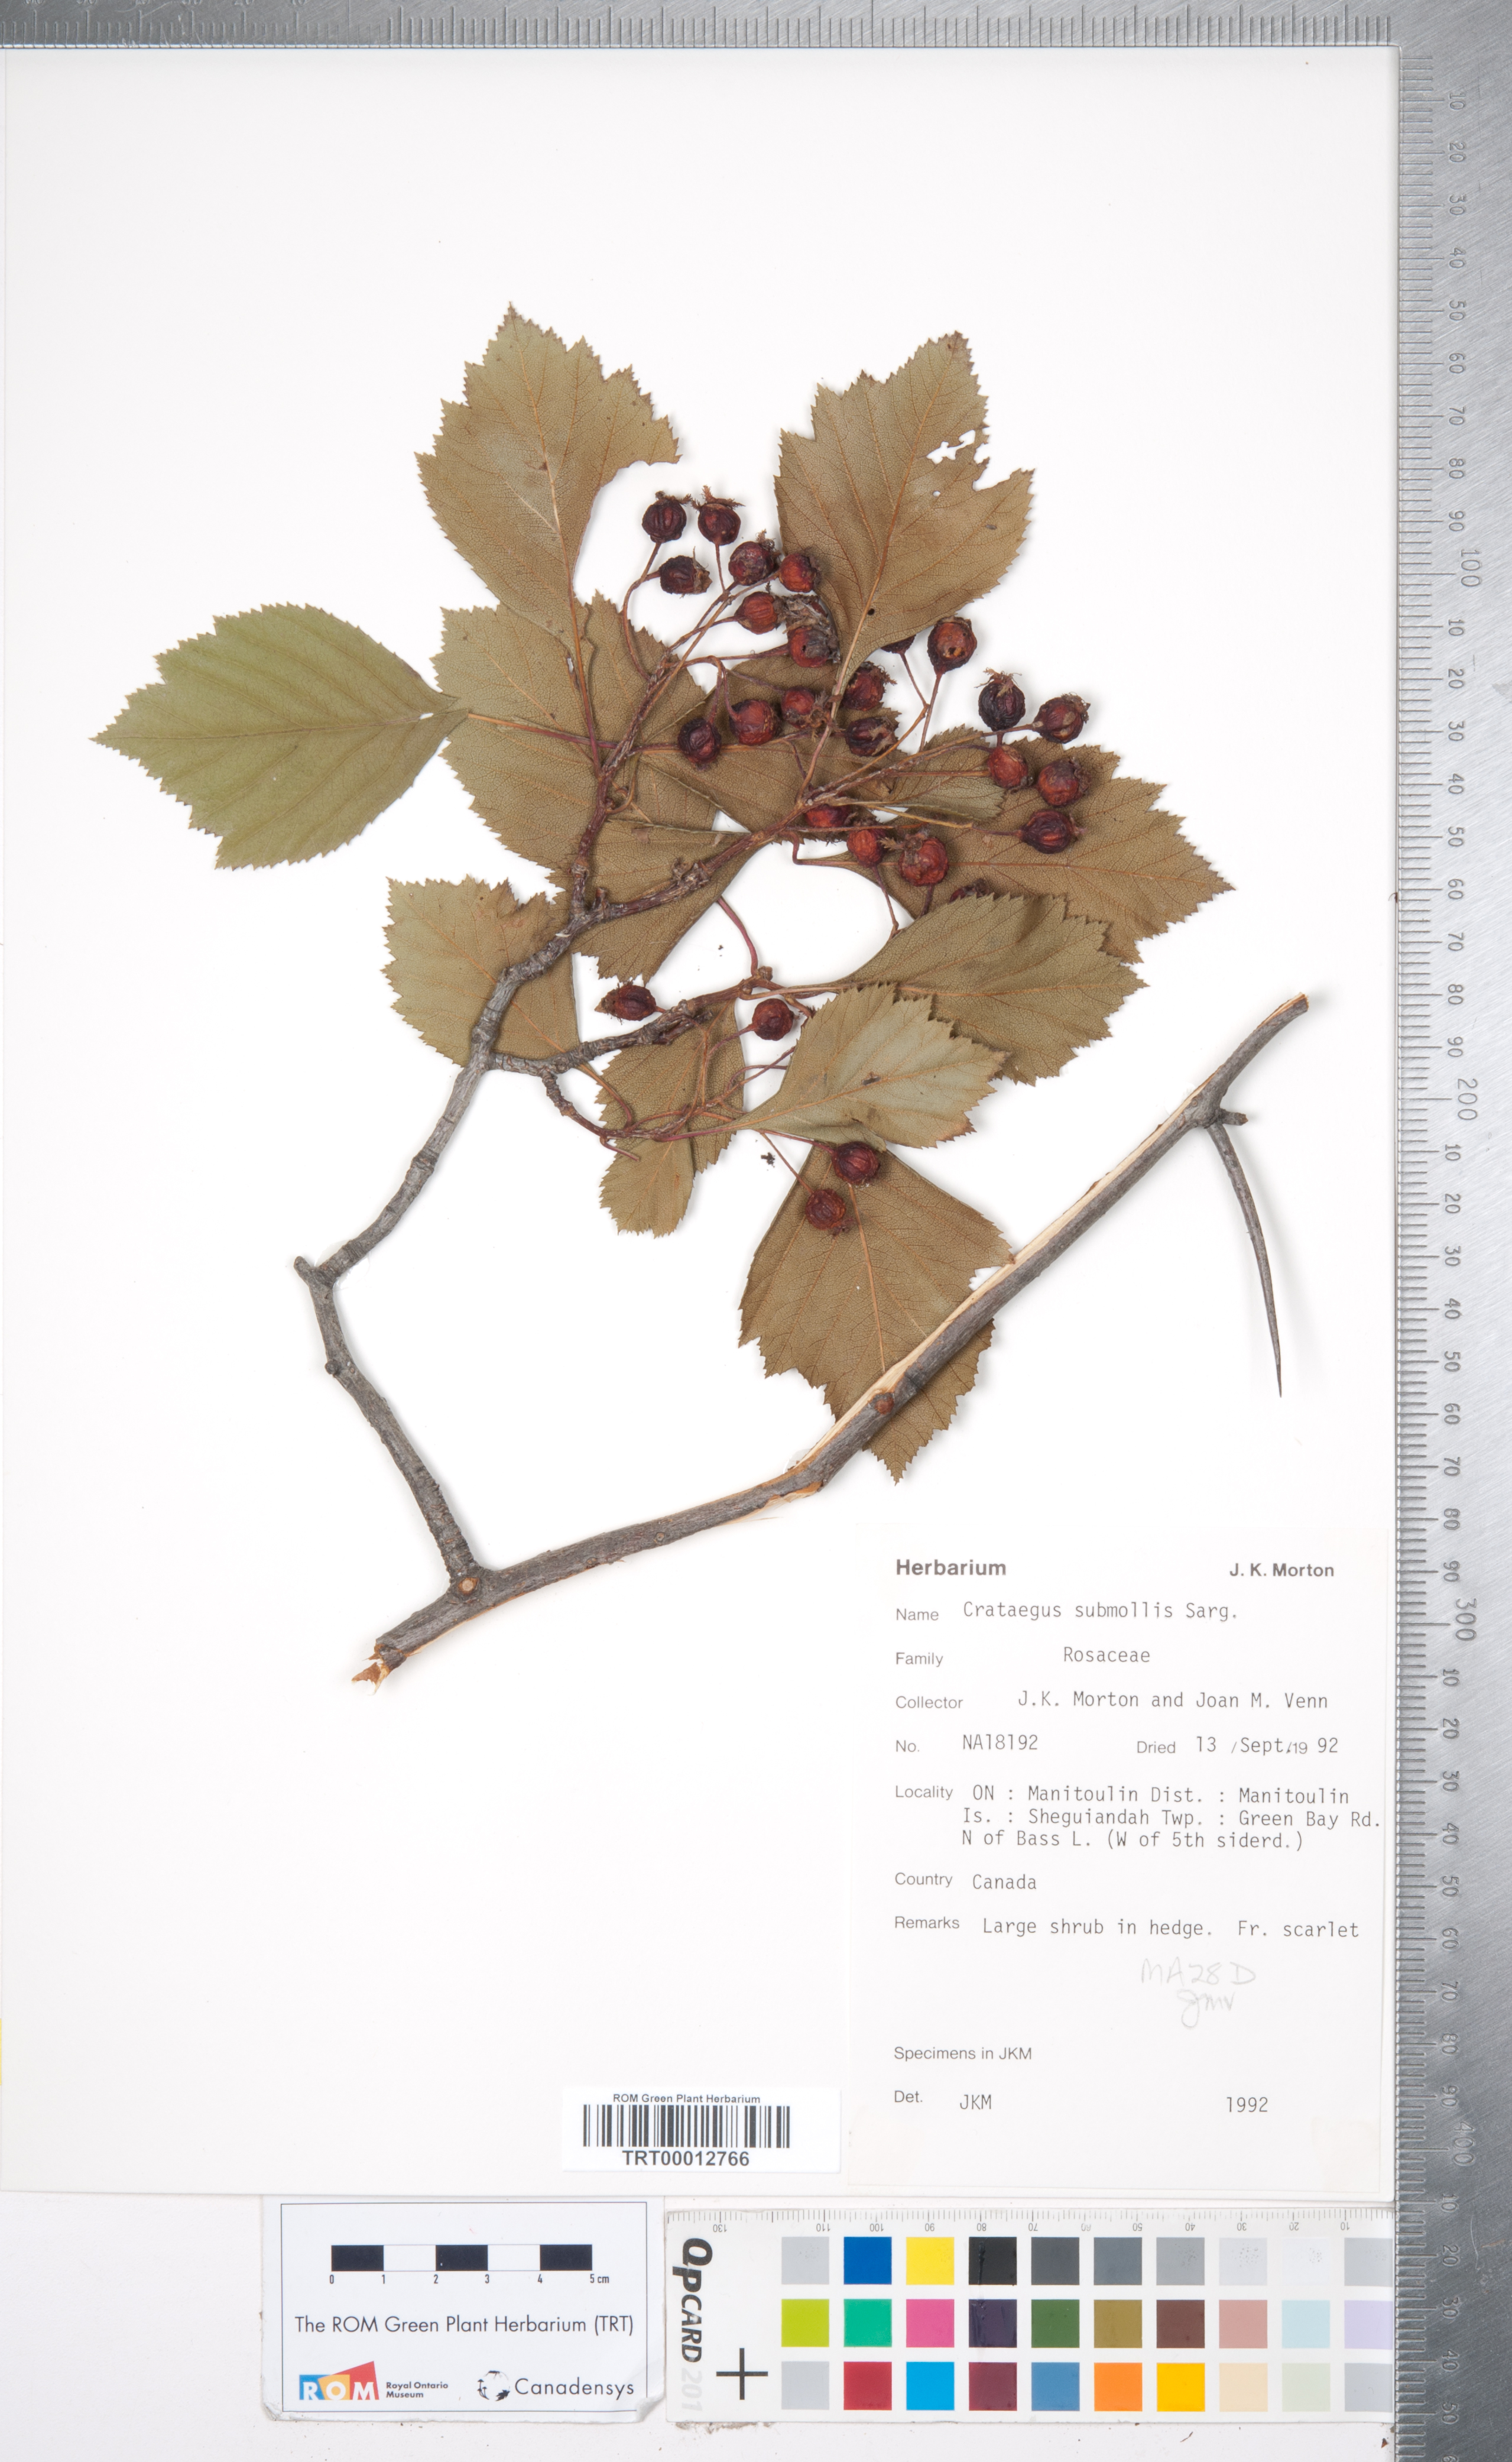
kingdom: Plantae
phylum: Tracheophyta
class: Magnoliopsida
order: Rosales
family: Rosaceae
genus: Crataegus
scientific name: Crataegus submollis
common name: Hairy cockspurthorn
